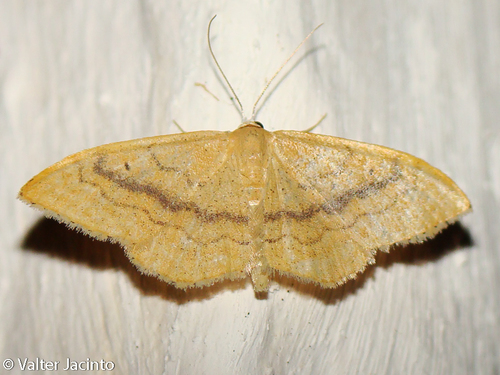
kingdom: Animalia
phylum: Arthropoda
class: Insecta
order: Lepidoptera
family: Geometridae
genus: Idaea
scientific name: Idaea sardoniata
